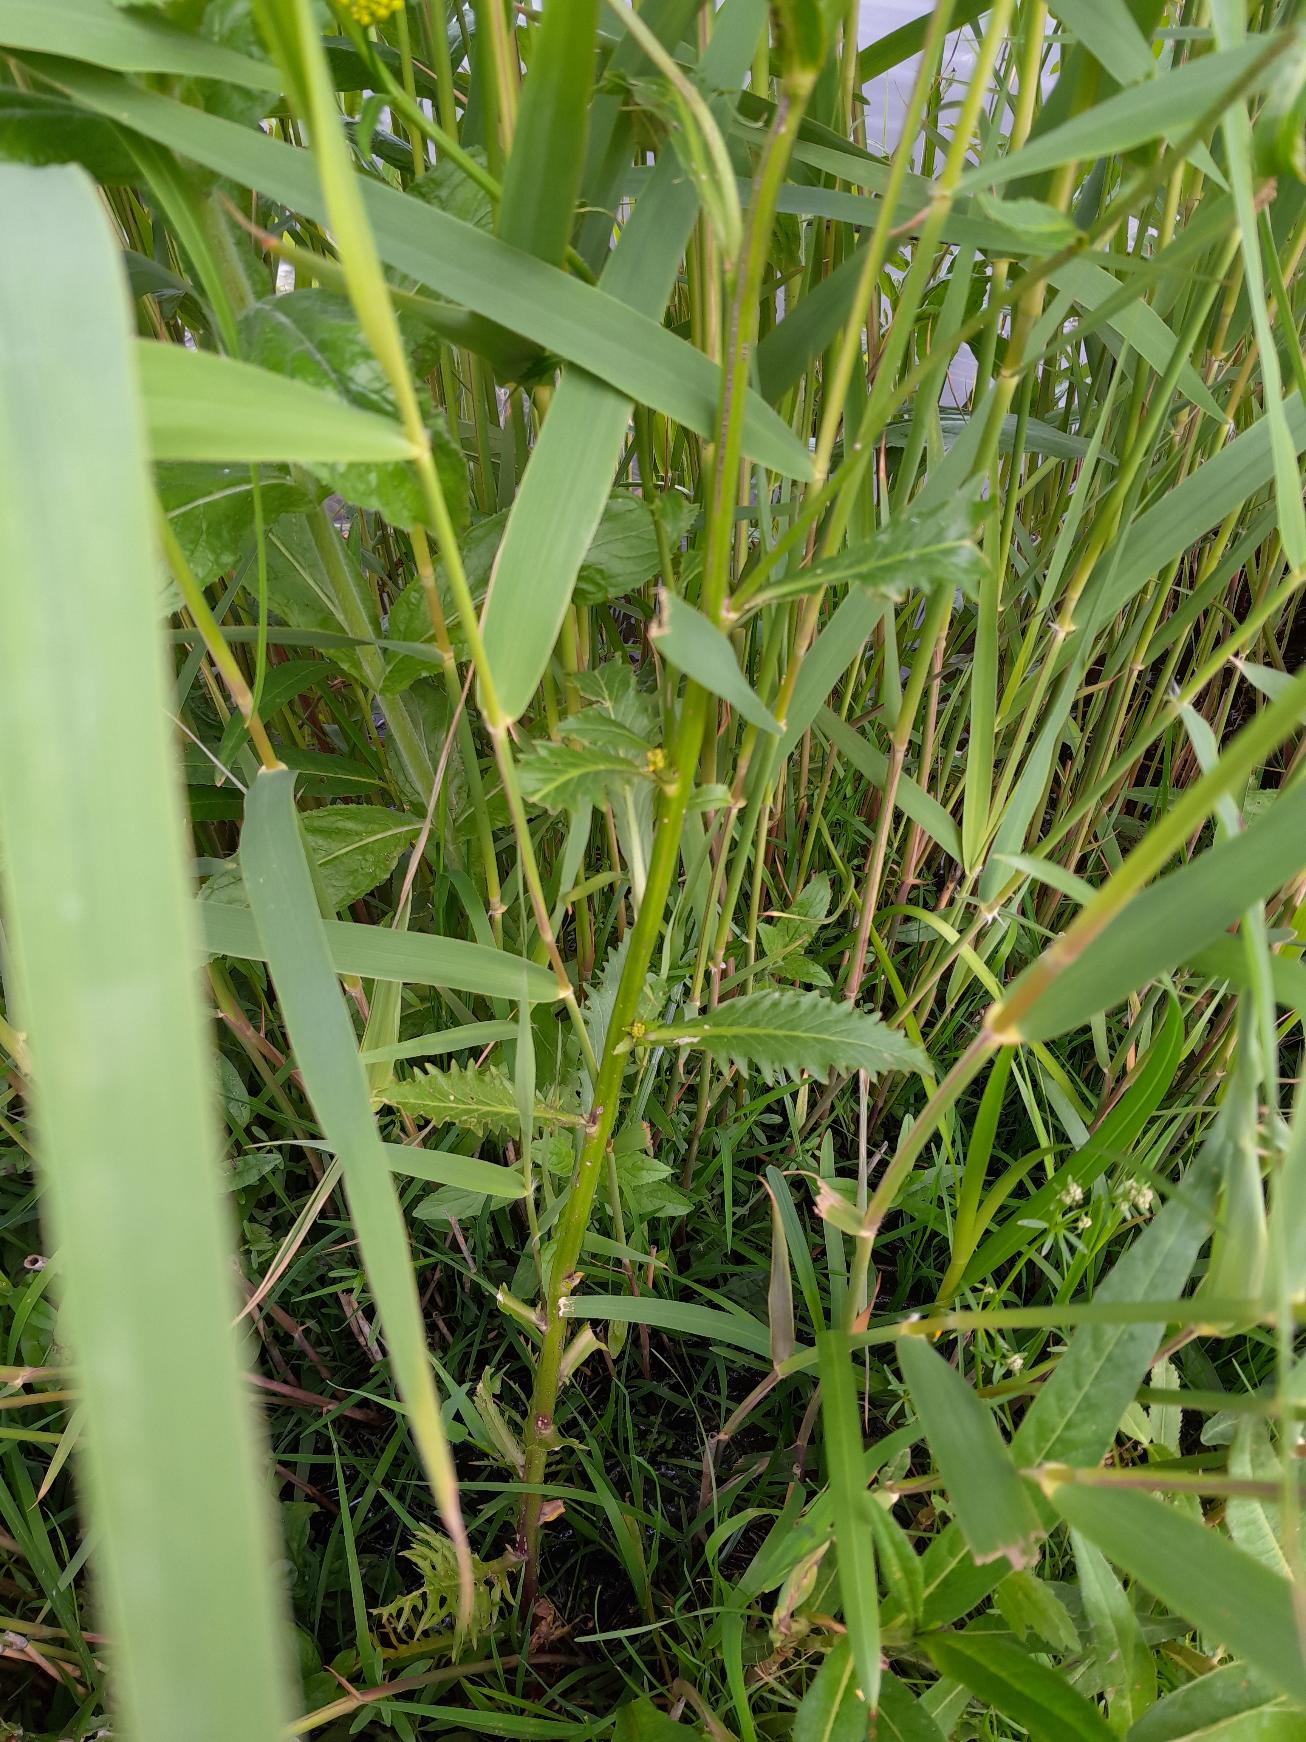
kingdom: Plantae
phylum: Tracheophyta
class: Magnoliopsida
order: Brassicales
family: Brassicaceae
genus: Rorippa
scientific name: Rorippa amphibia
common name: Vandpeberrod
